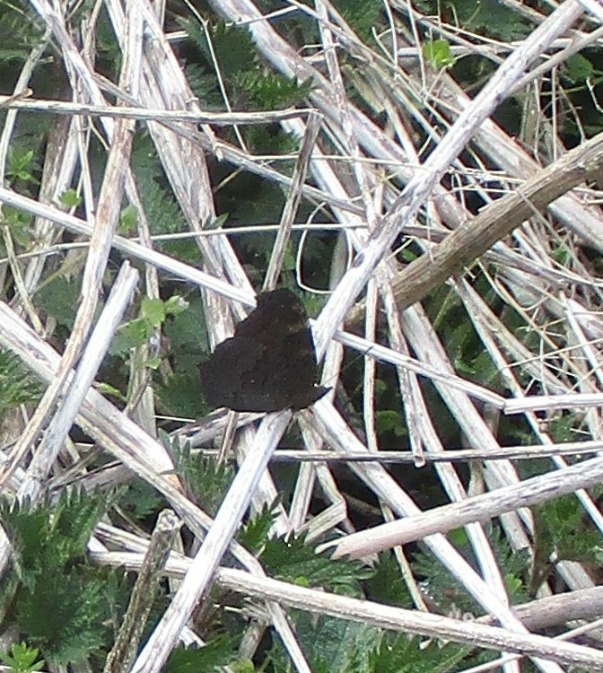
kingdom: Animalia
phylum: Arthropoda
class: Insecta
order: Lepidoptera
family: Nymphalidae
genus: Aglais
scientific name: Aglais io
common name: Dagpåfugleøje
